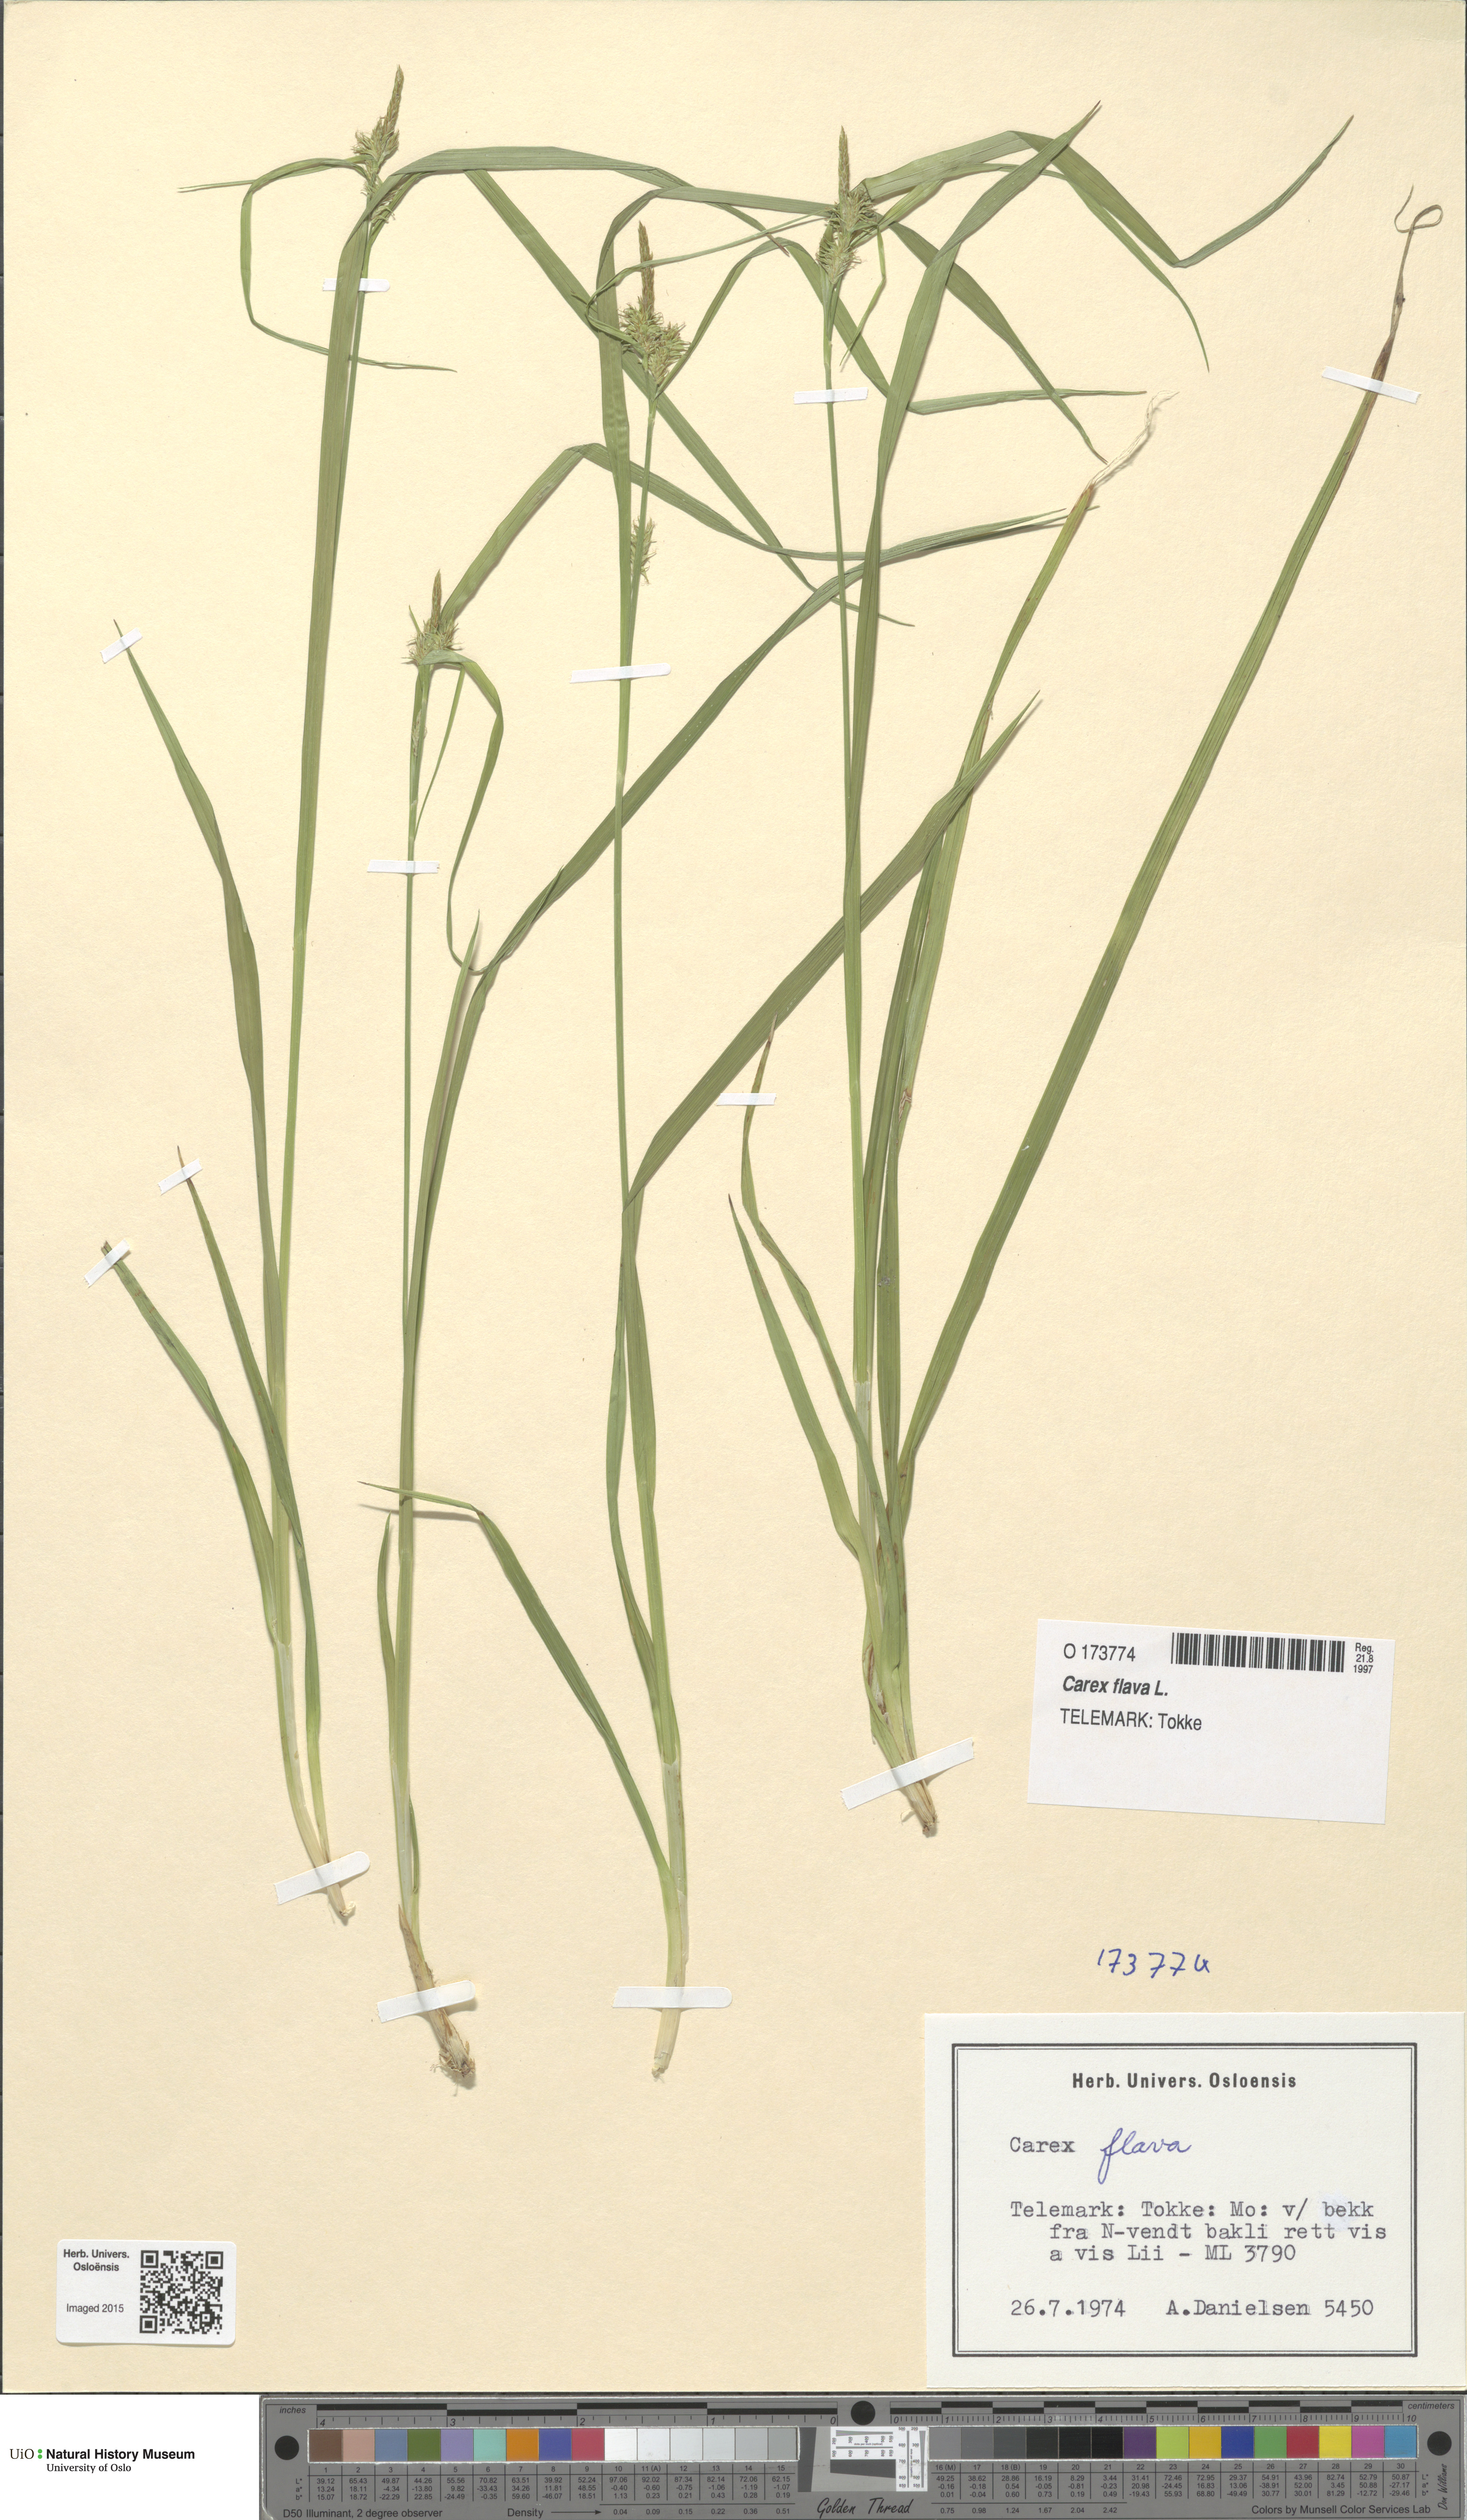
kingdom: Plantae
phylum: Tracheophyta
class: Liliopsida
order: Poales
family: Cyperaceae
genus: Carex
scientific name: Carex flava
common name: Large yellow-sedge
